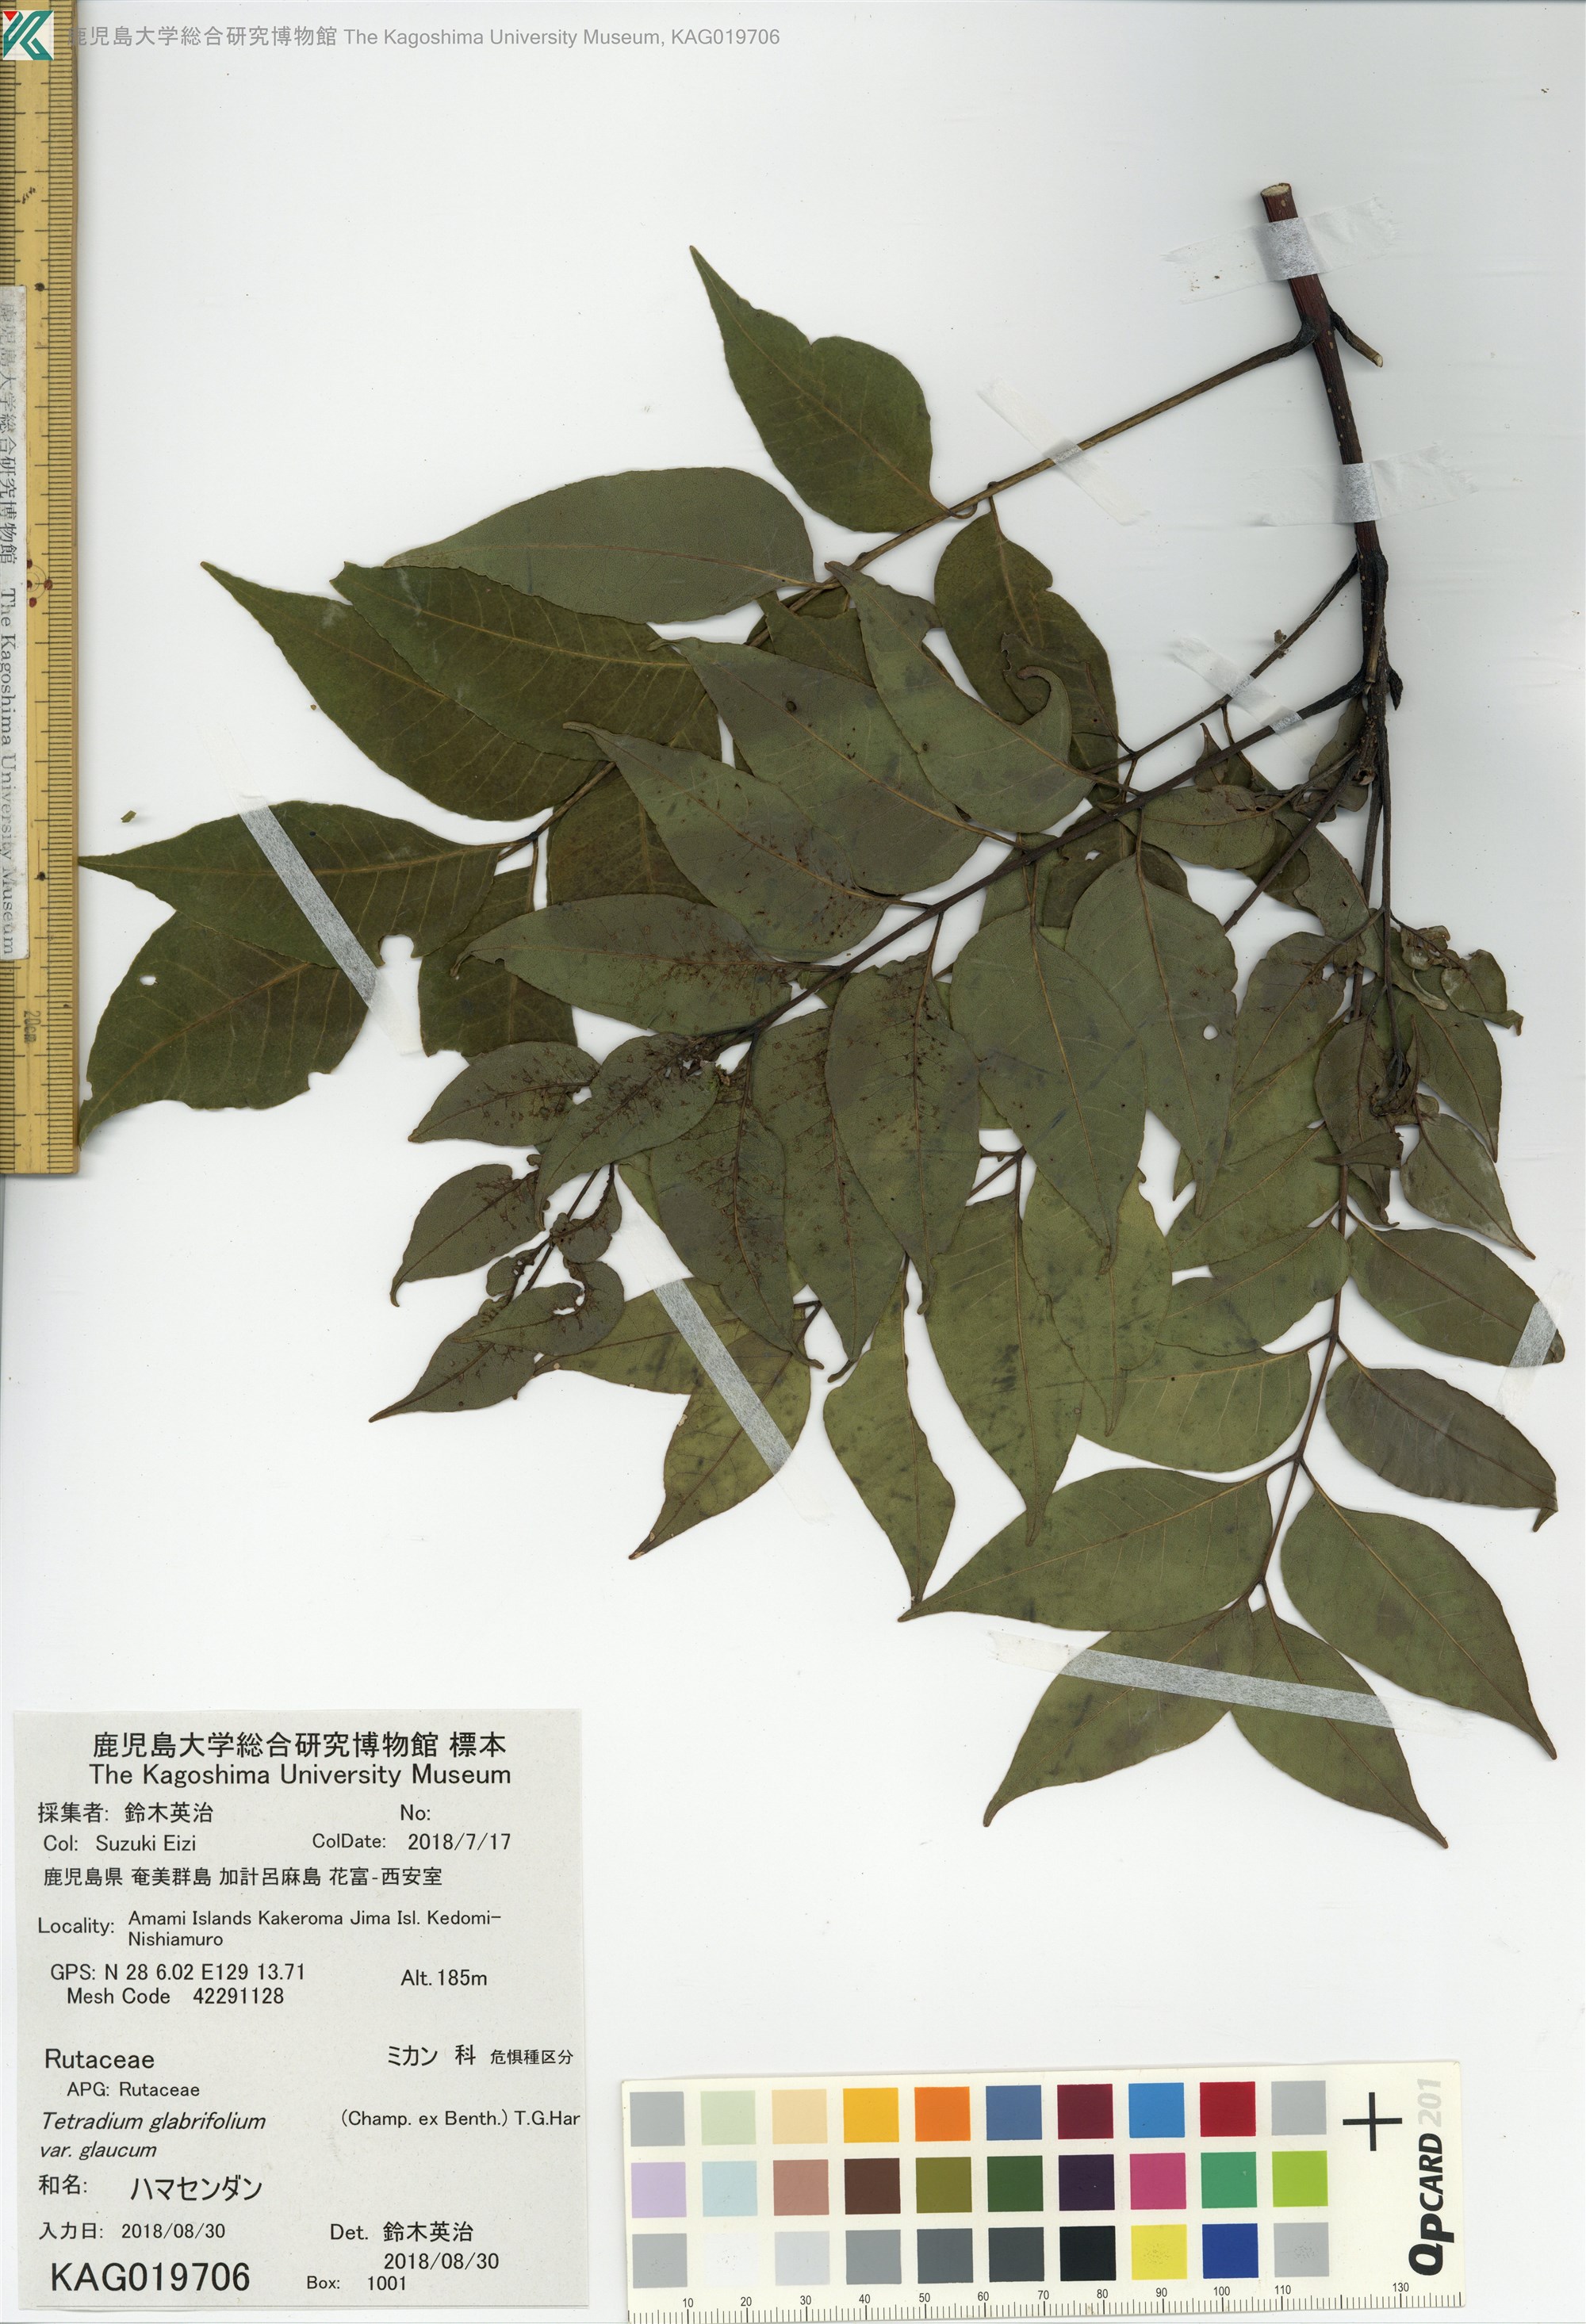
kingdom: Plantae
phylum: Tracheophyta
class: Magnoliopsida
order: Sapindales
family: Rutaceae
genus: Tetradium
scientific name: Tetradium glabrifolium
